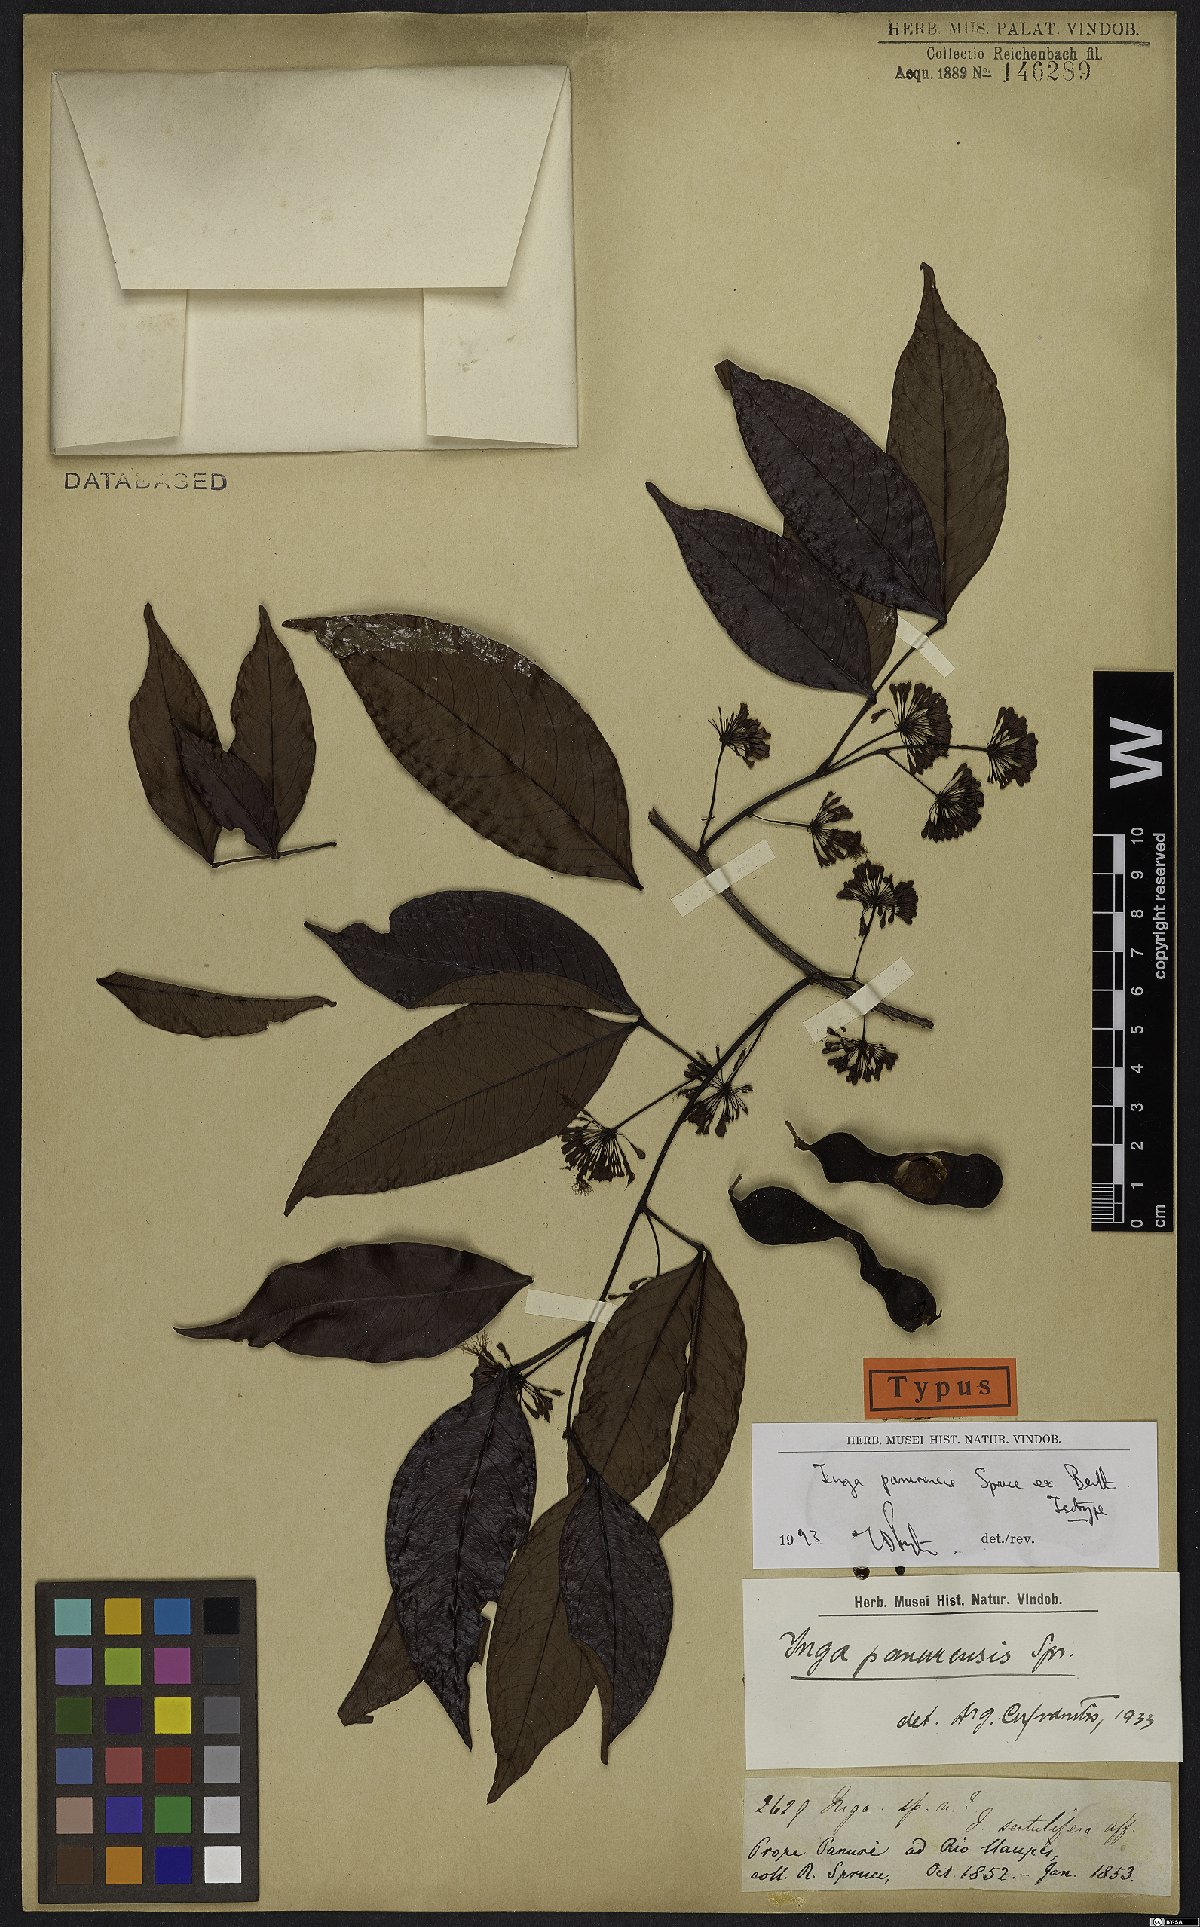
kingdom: Plantae
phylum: Tracheophyta
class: Magnoliopsida
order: Fabales
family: Fabaceae
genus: Inga
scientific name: Inga panurensis
